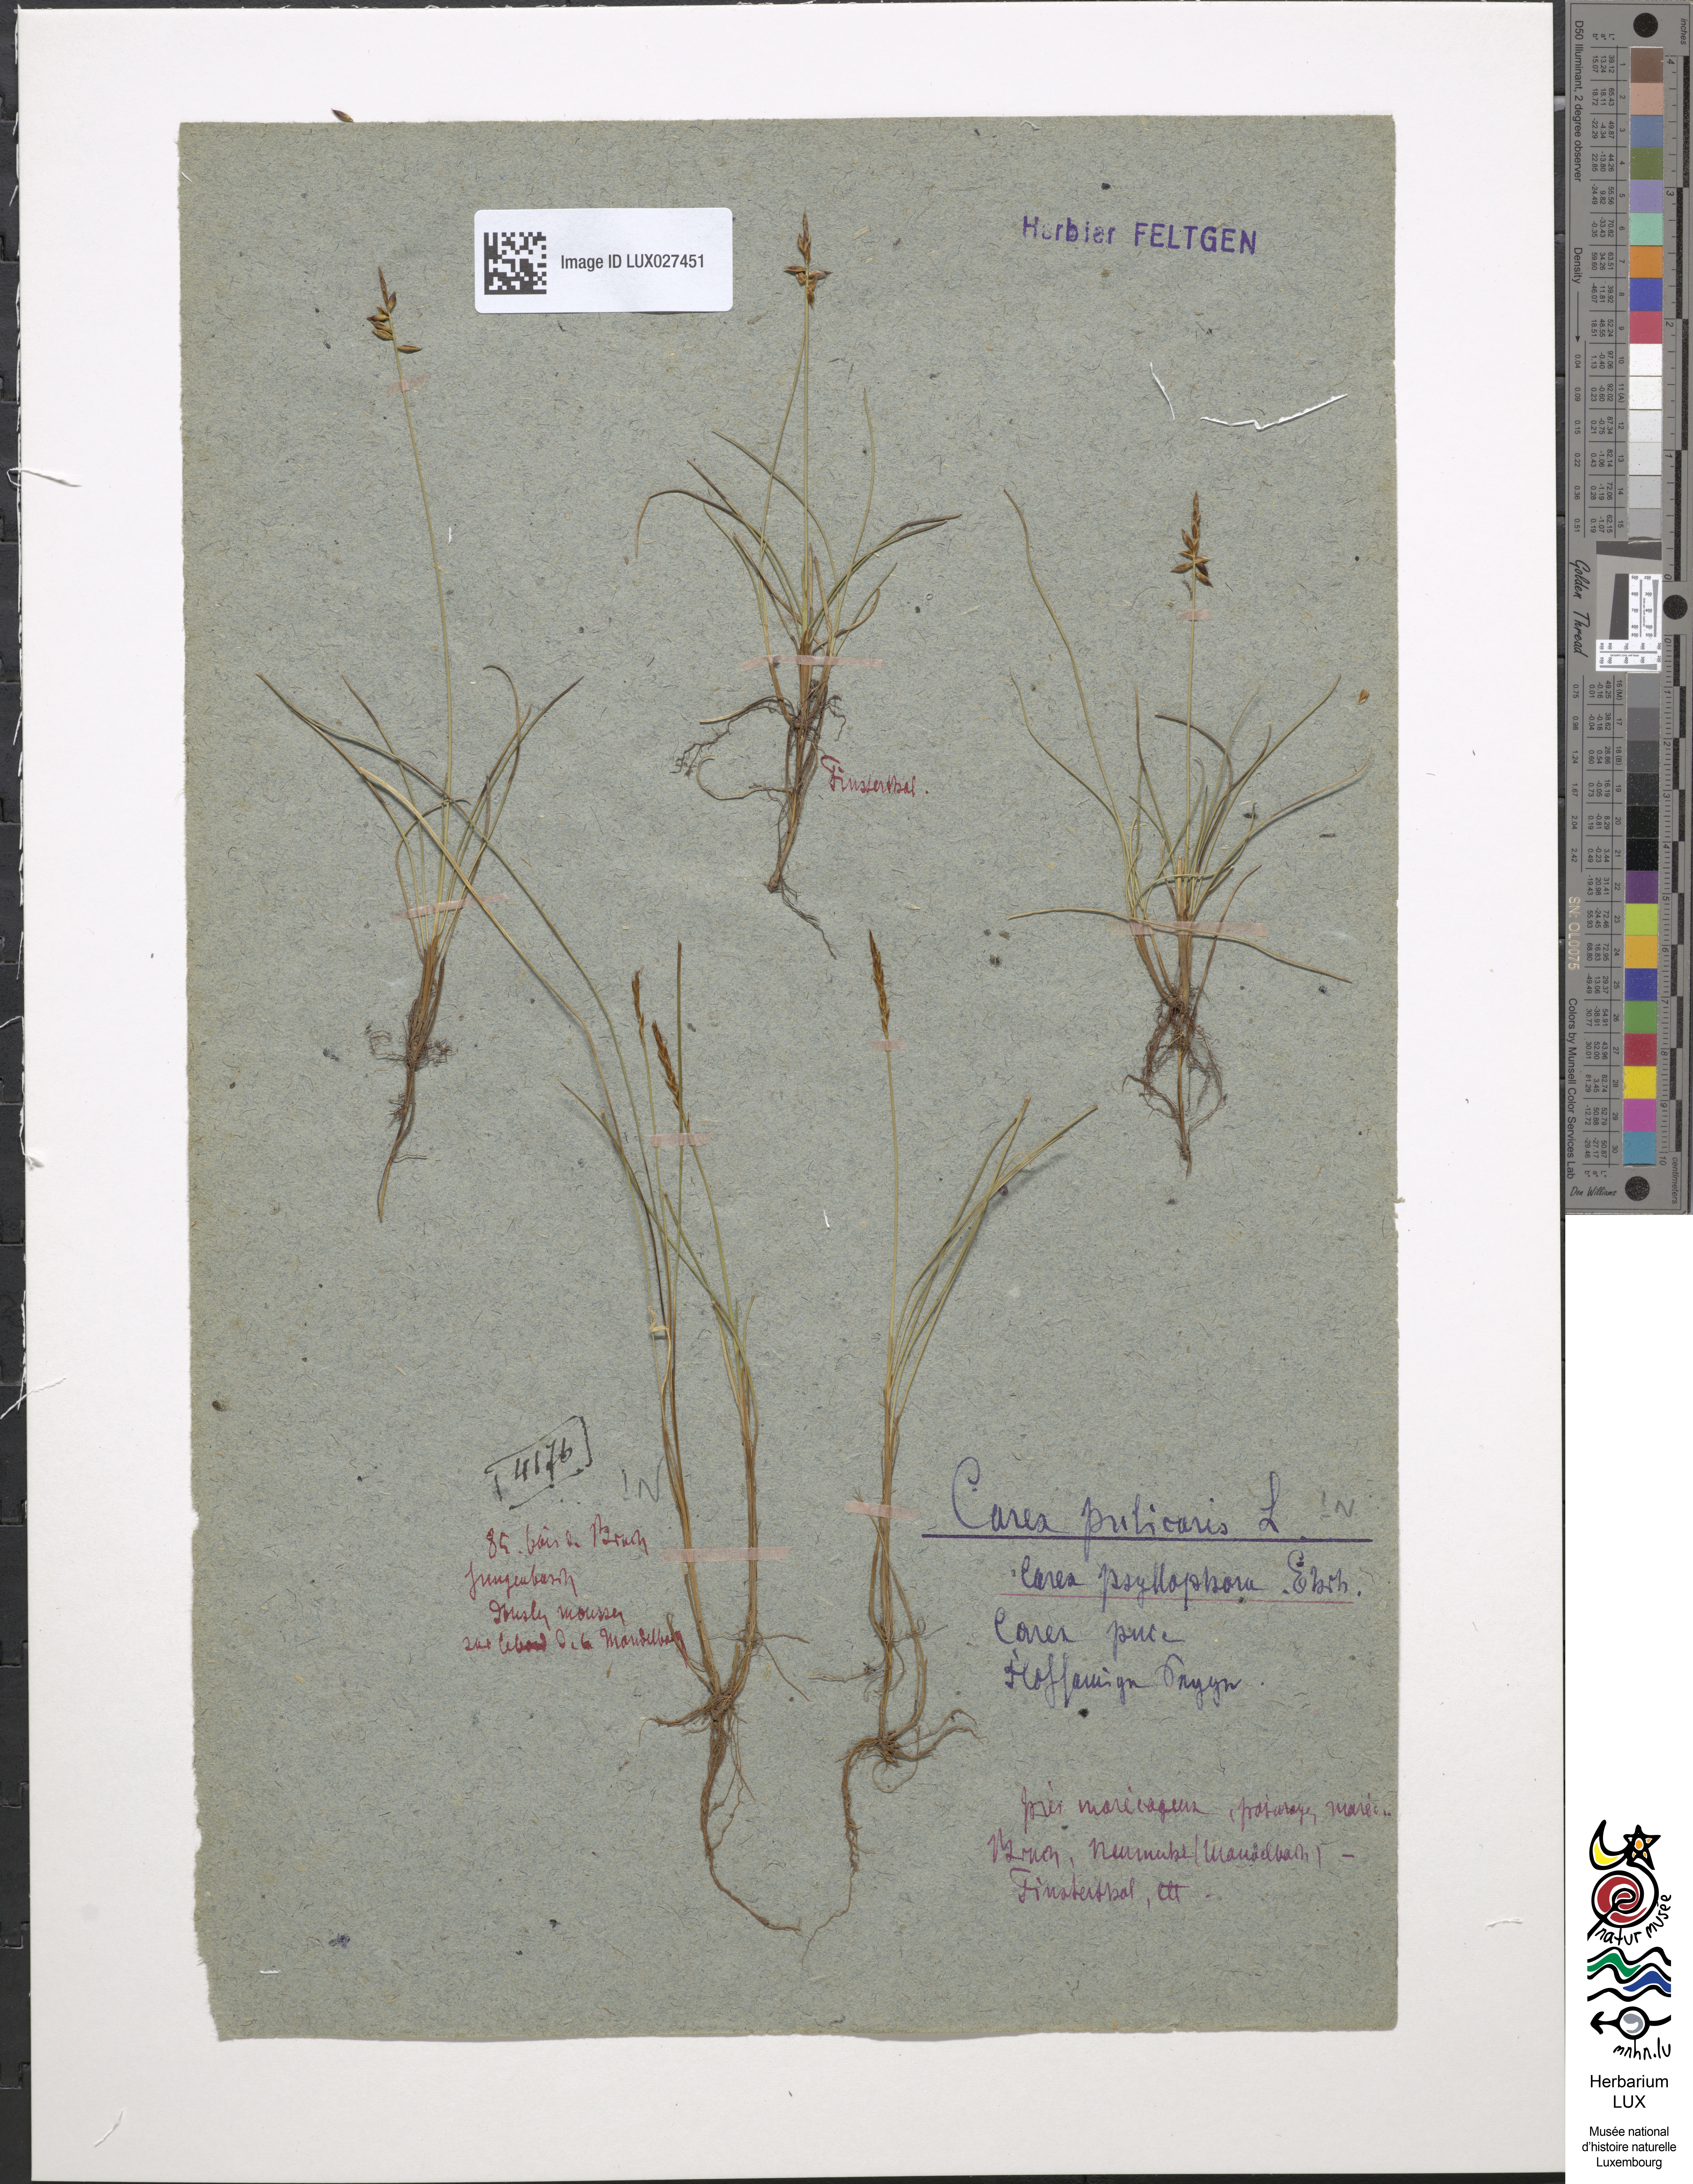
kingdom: Plantae
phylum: Tracheophyta
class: Liliopsida
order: Poales
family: Cyperaceae
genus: Carex
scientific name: Carex pulicaris
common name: Flea sedge
